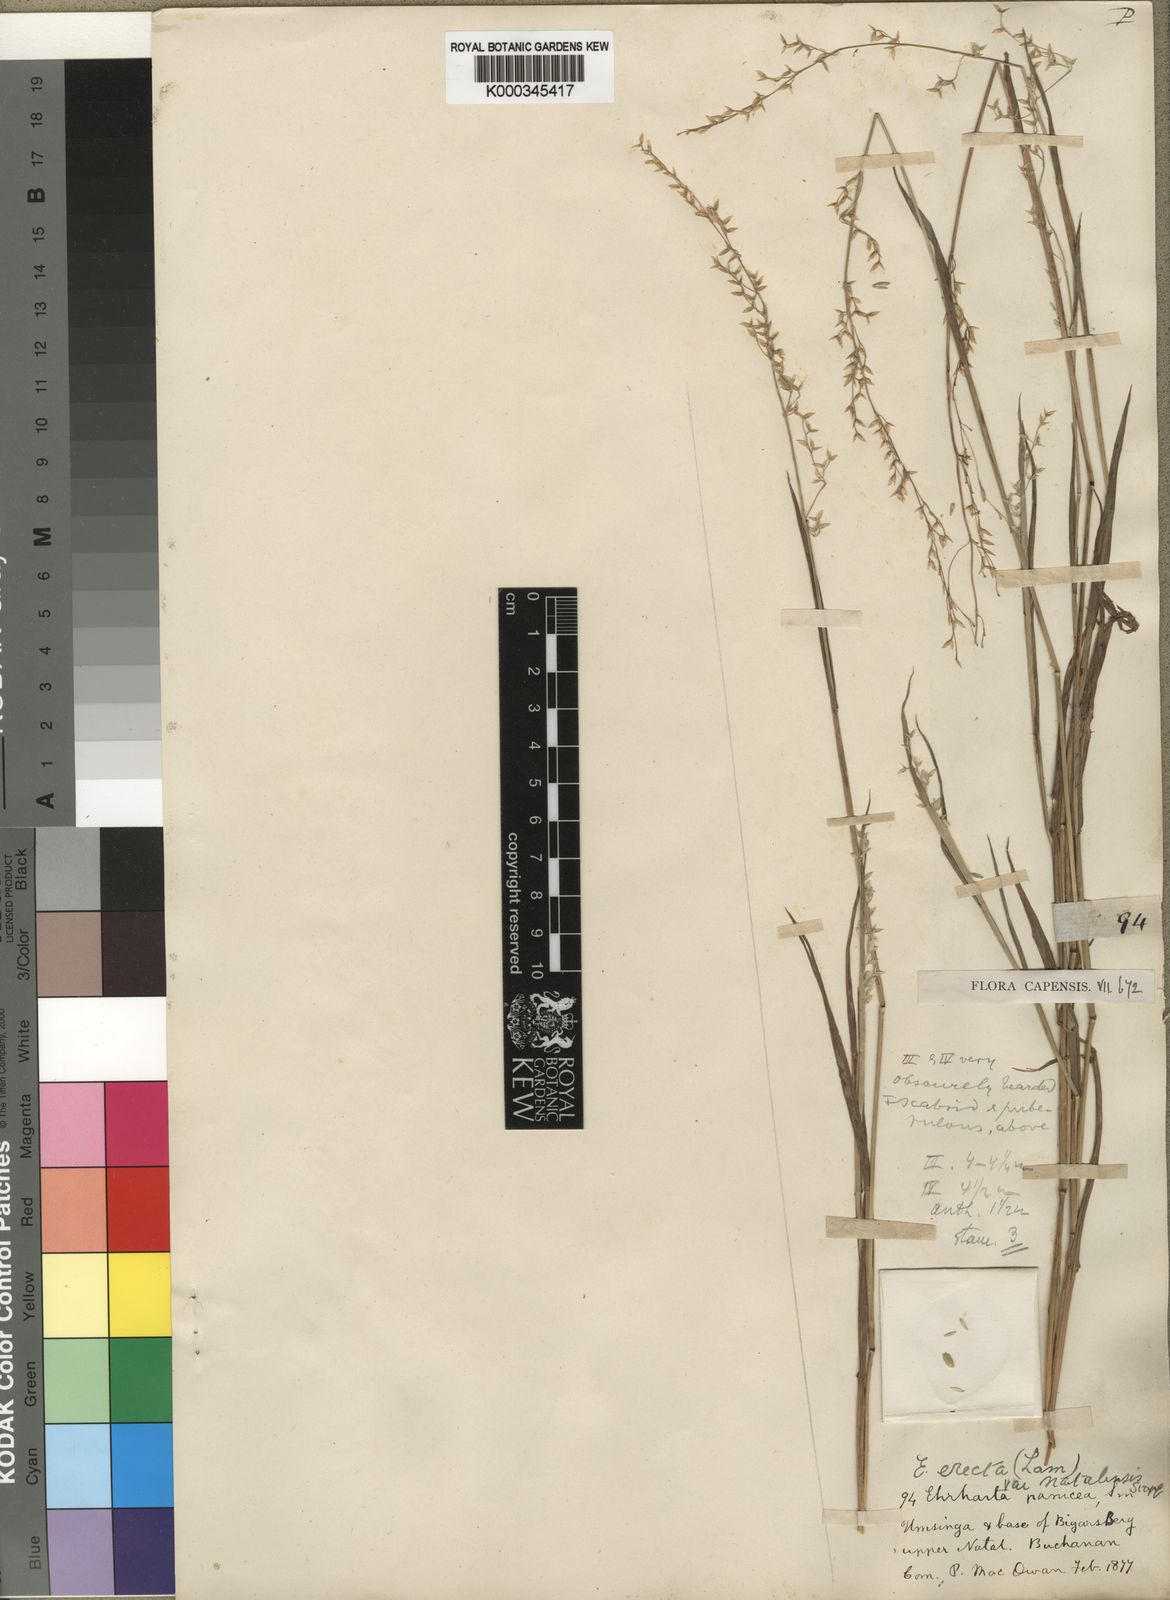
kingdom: Plantae
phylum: Tracheophyta
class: Liliopsida
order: Poales
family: Poaceae
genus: Ehrharta
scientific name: Ehrharta erecta
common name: Panic veldtgrass
